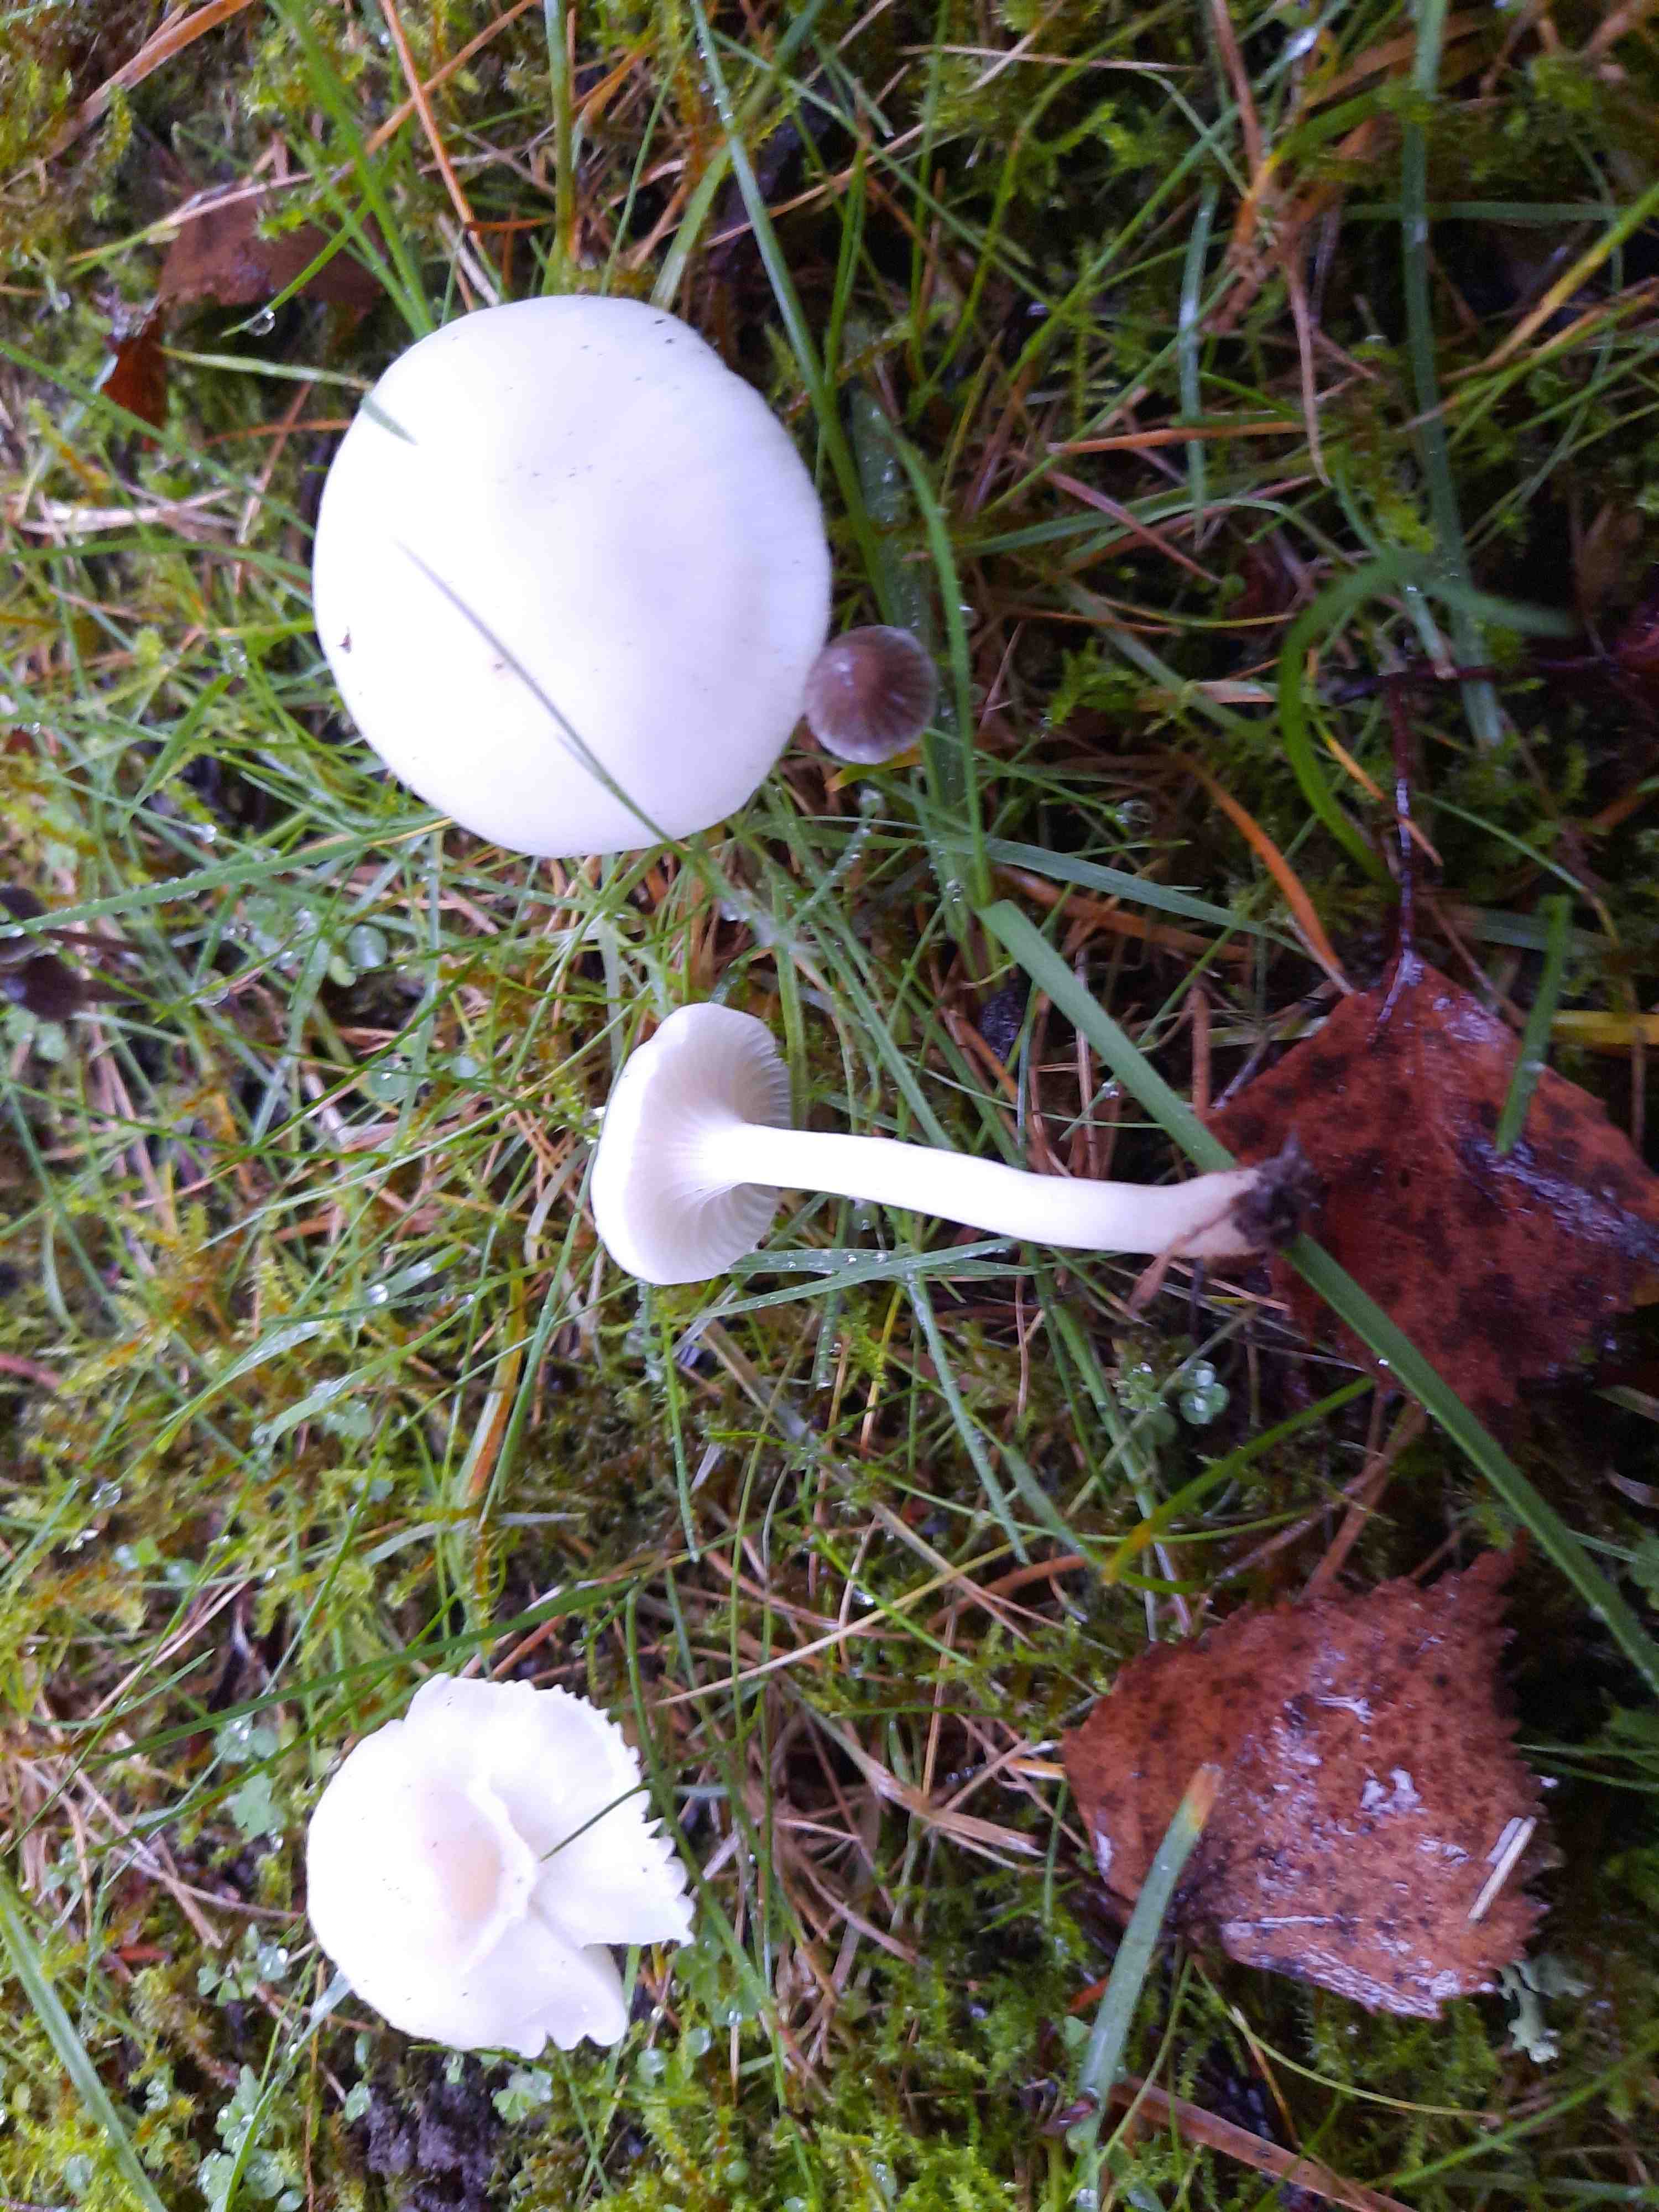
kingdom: Fungi
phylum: Basidiomycota
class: Agaricomycetes
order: Agaricales
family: Hygrophoraceae
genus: Cuphophyllus
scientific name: Cuphophyllus virgineus
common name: snehvid vokshat
